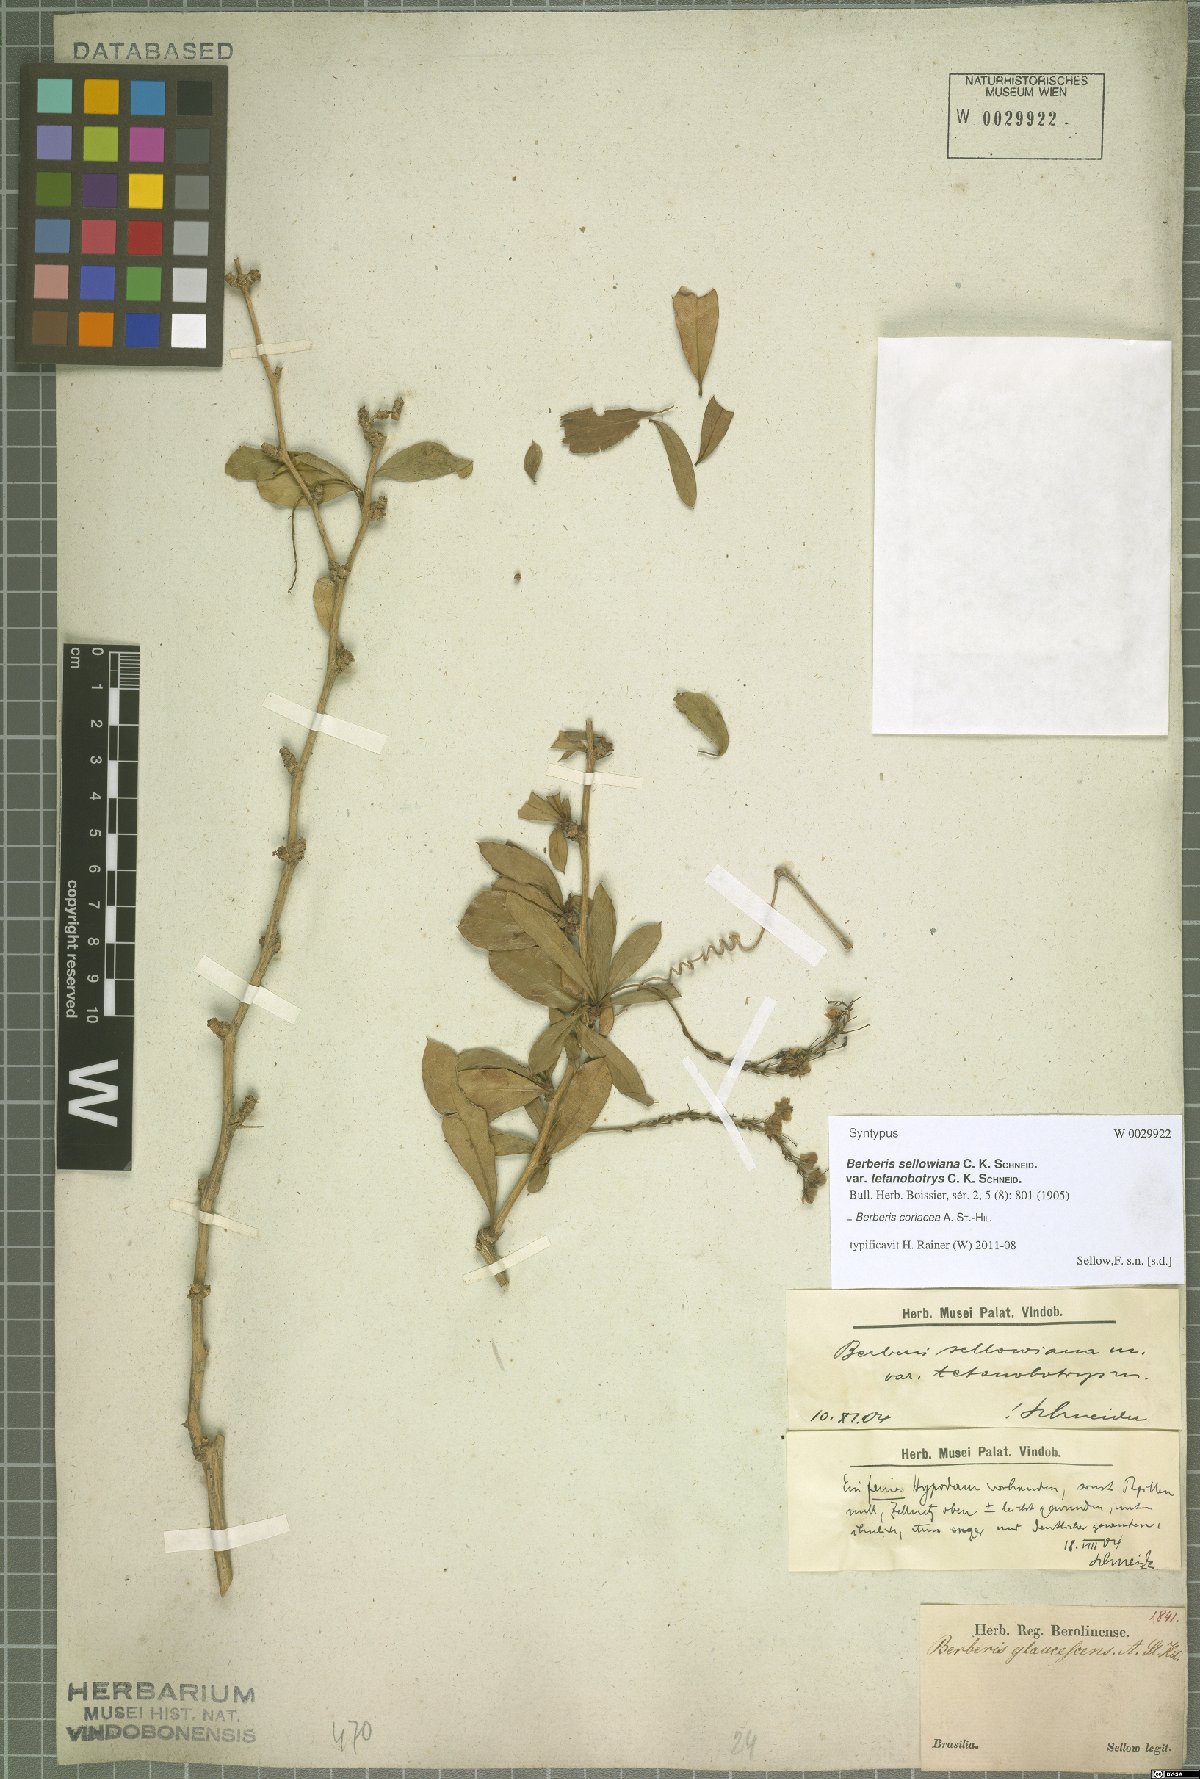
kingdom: Plantae
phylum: Tracheophyta
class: Magnoliopsida
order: Ranunculales
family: Berberidaceae
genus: Berberis
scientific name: Berberis laurina
